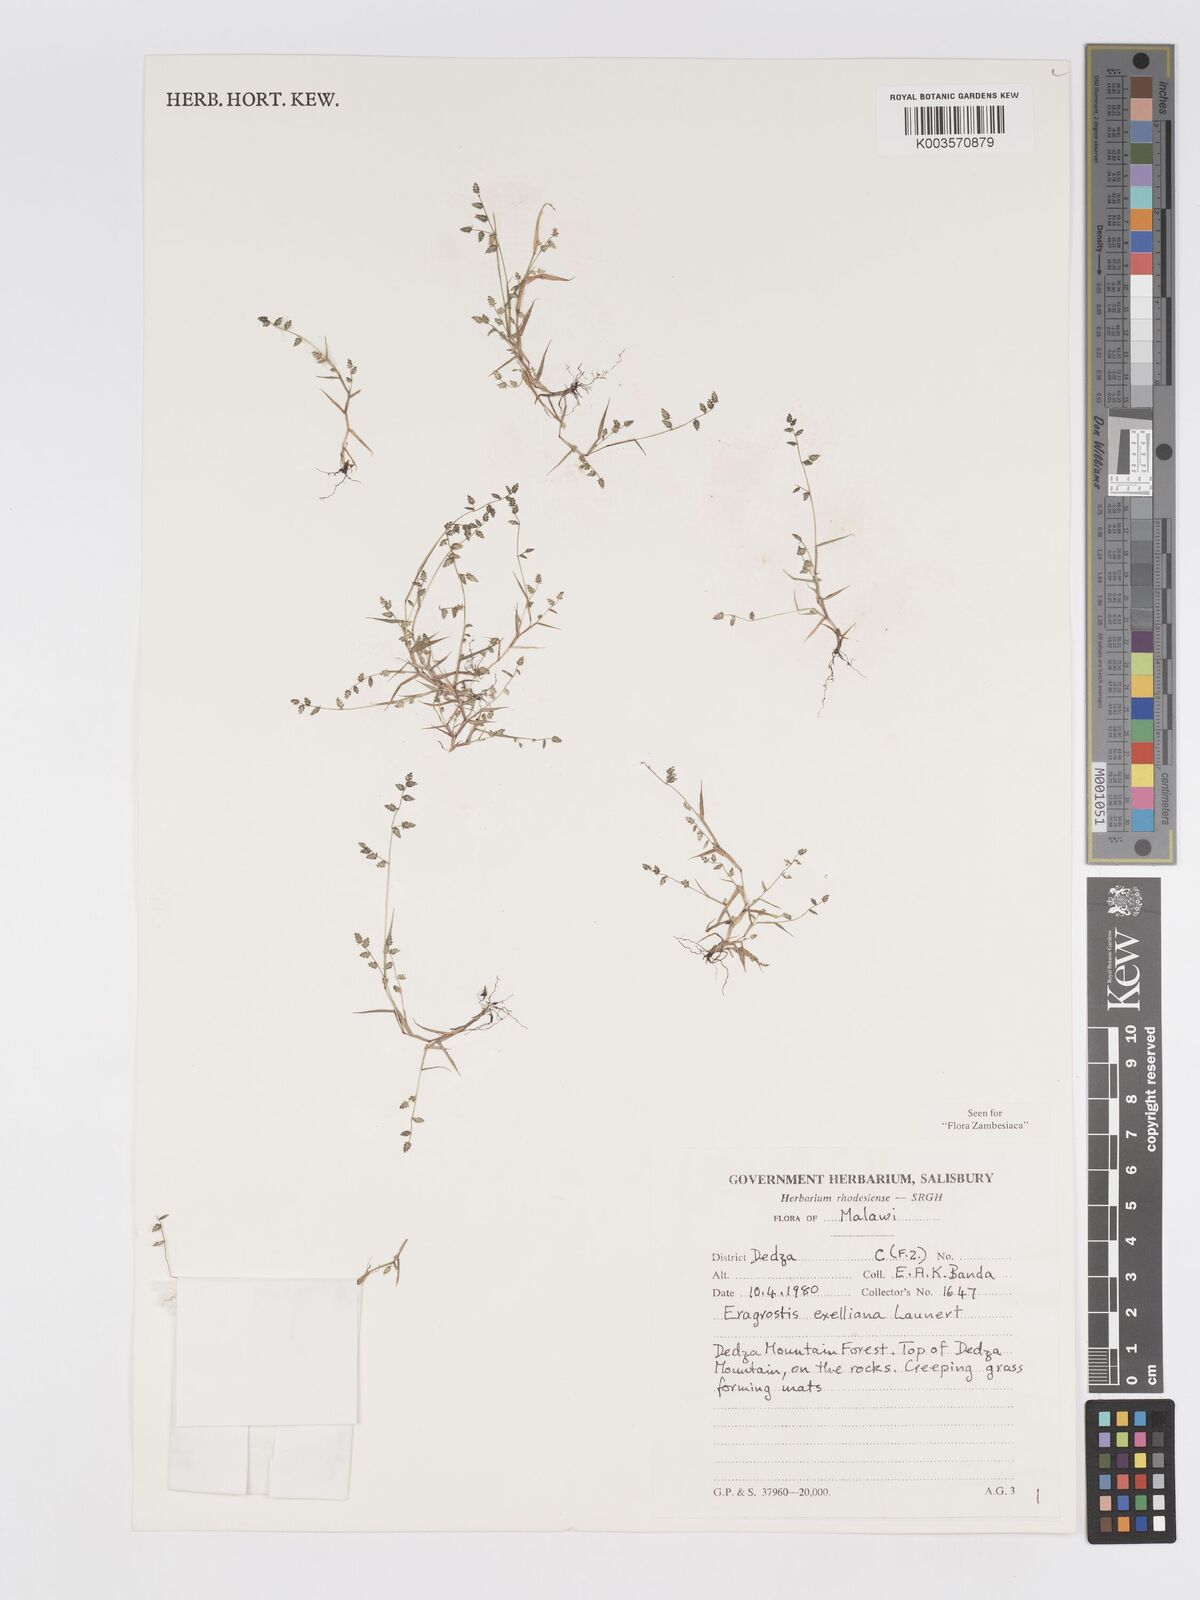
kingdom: Plantae
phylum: Tracheophyta
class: Liliopsida
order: Poales
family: Poaceae
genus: Eragrostis
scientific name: Eragrostis exelliana
